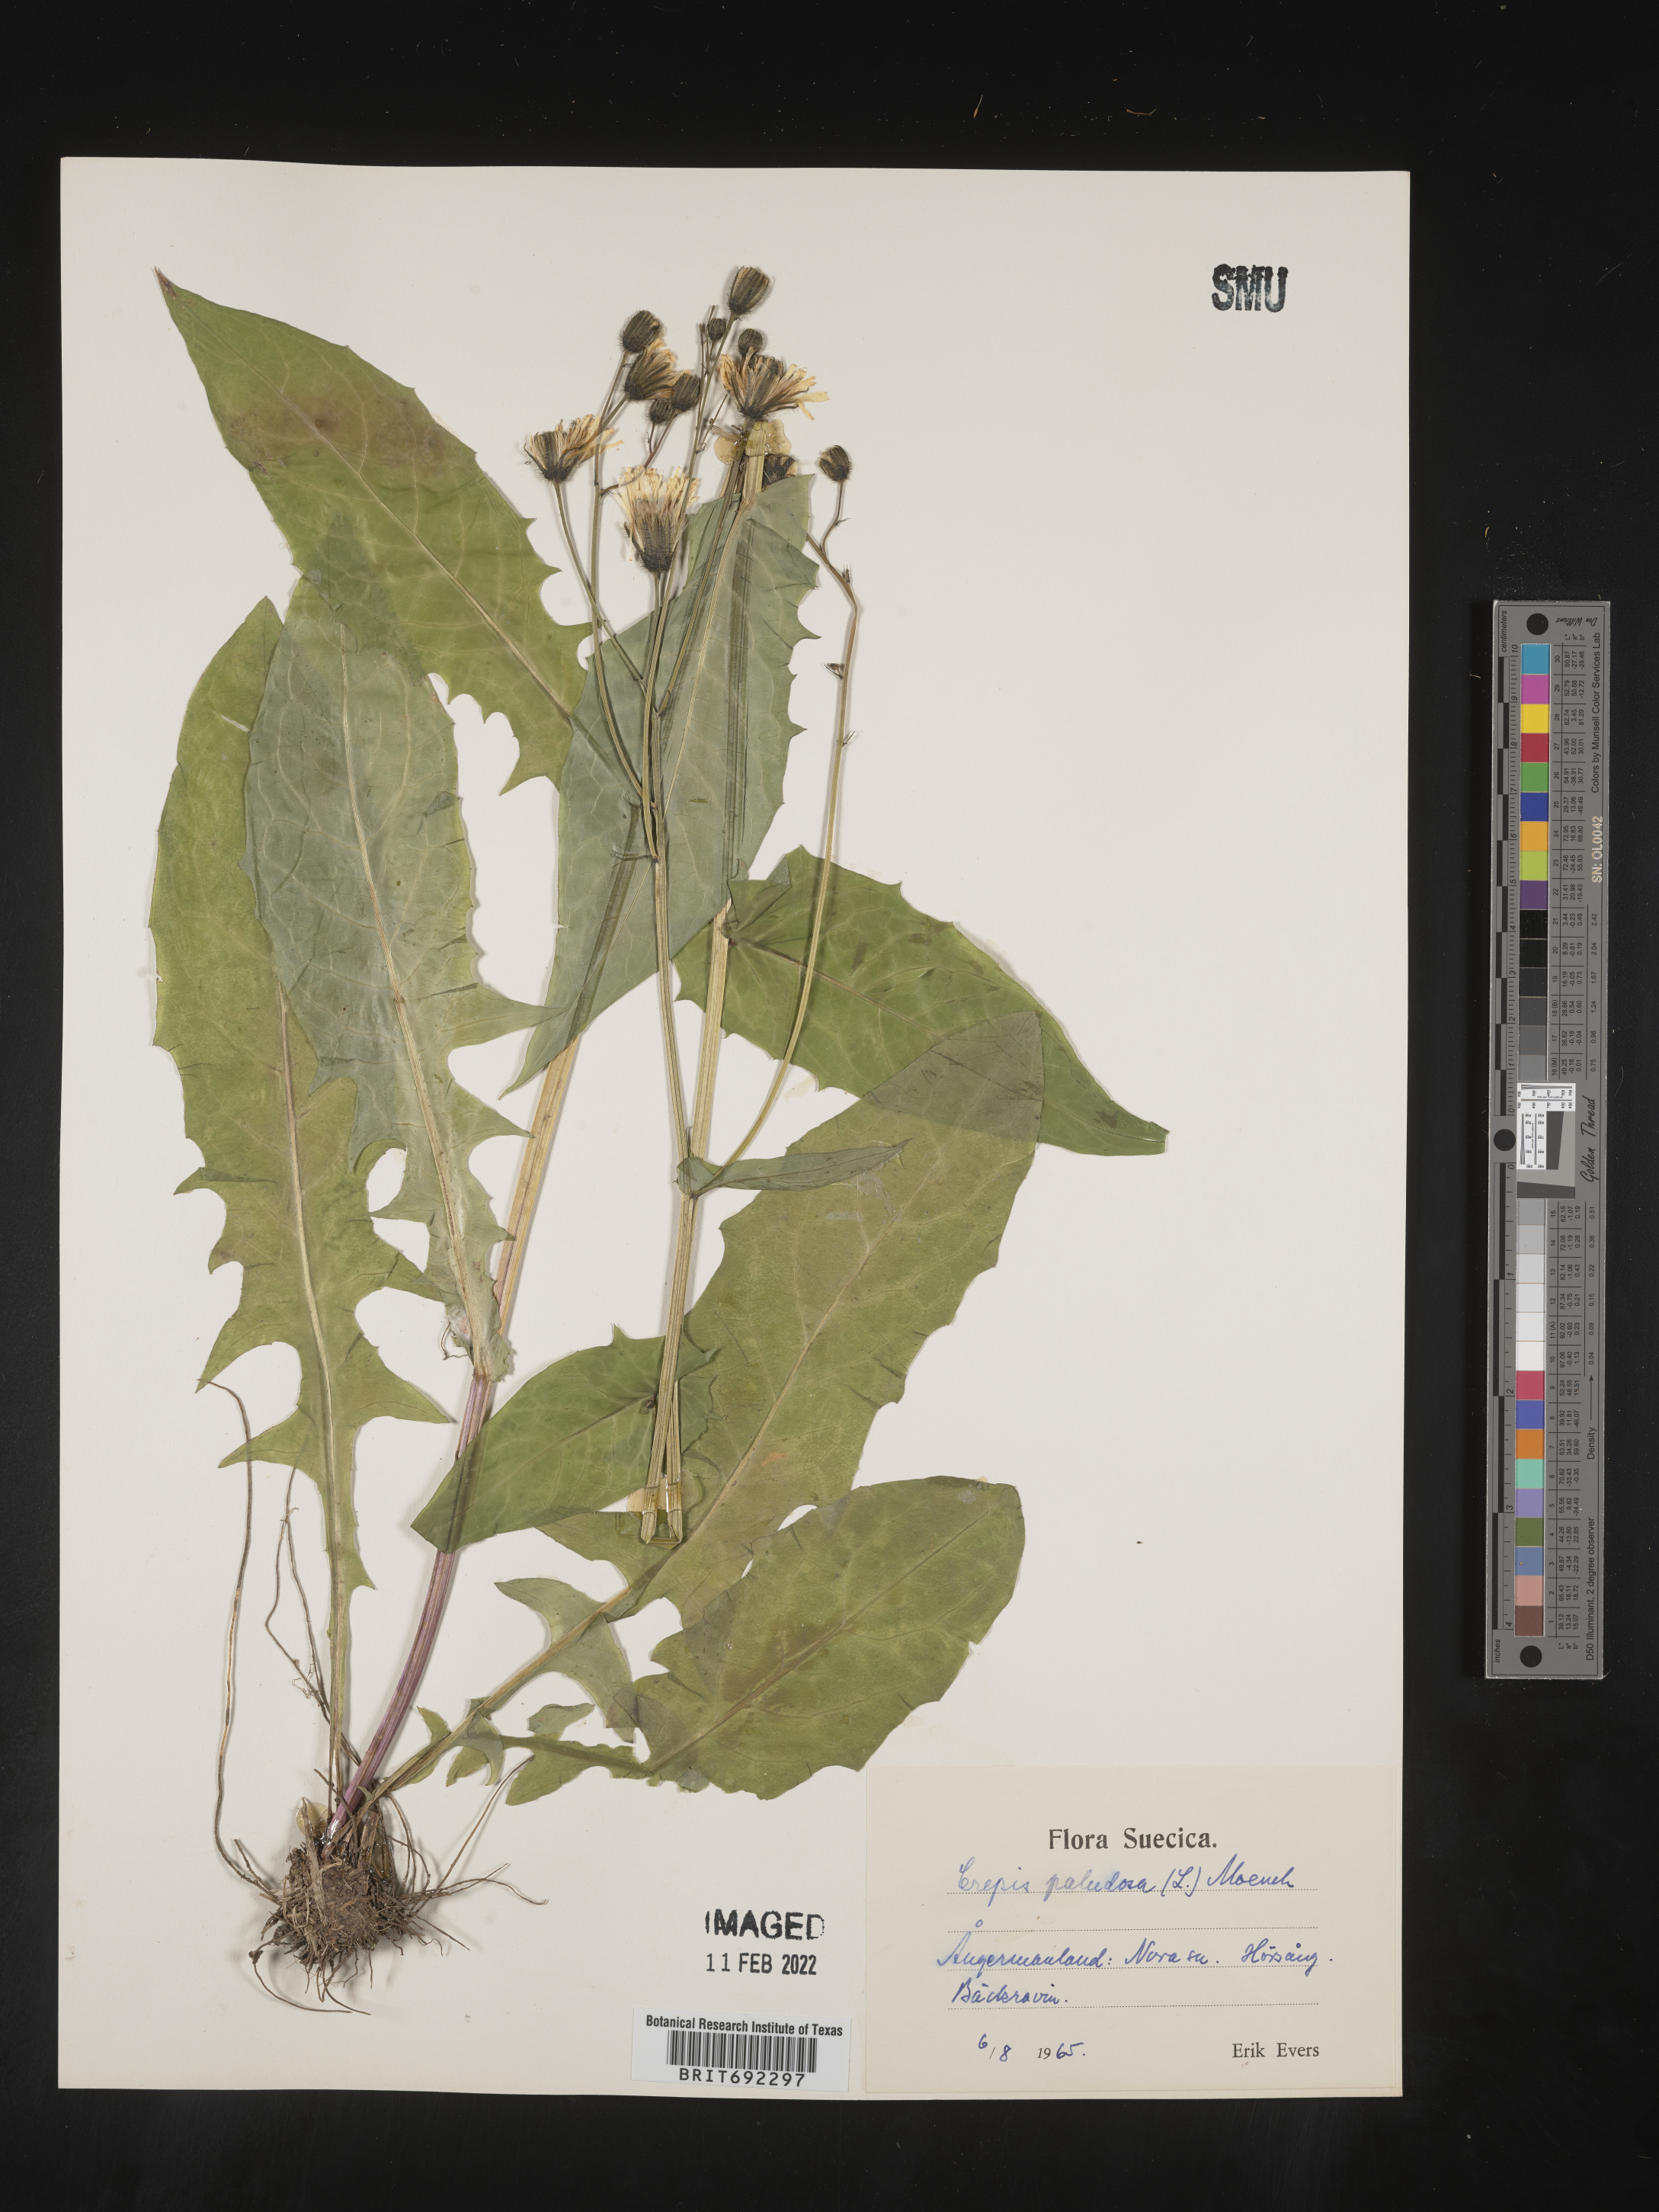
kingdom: Plantae
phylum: Tracheophyta
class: Magnoliopsida
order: Asterales
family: Asteraceae
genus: Crepis
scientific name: Crepis
